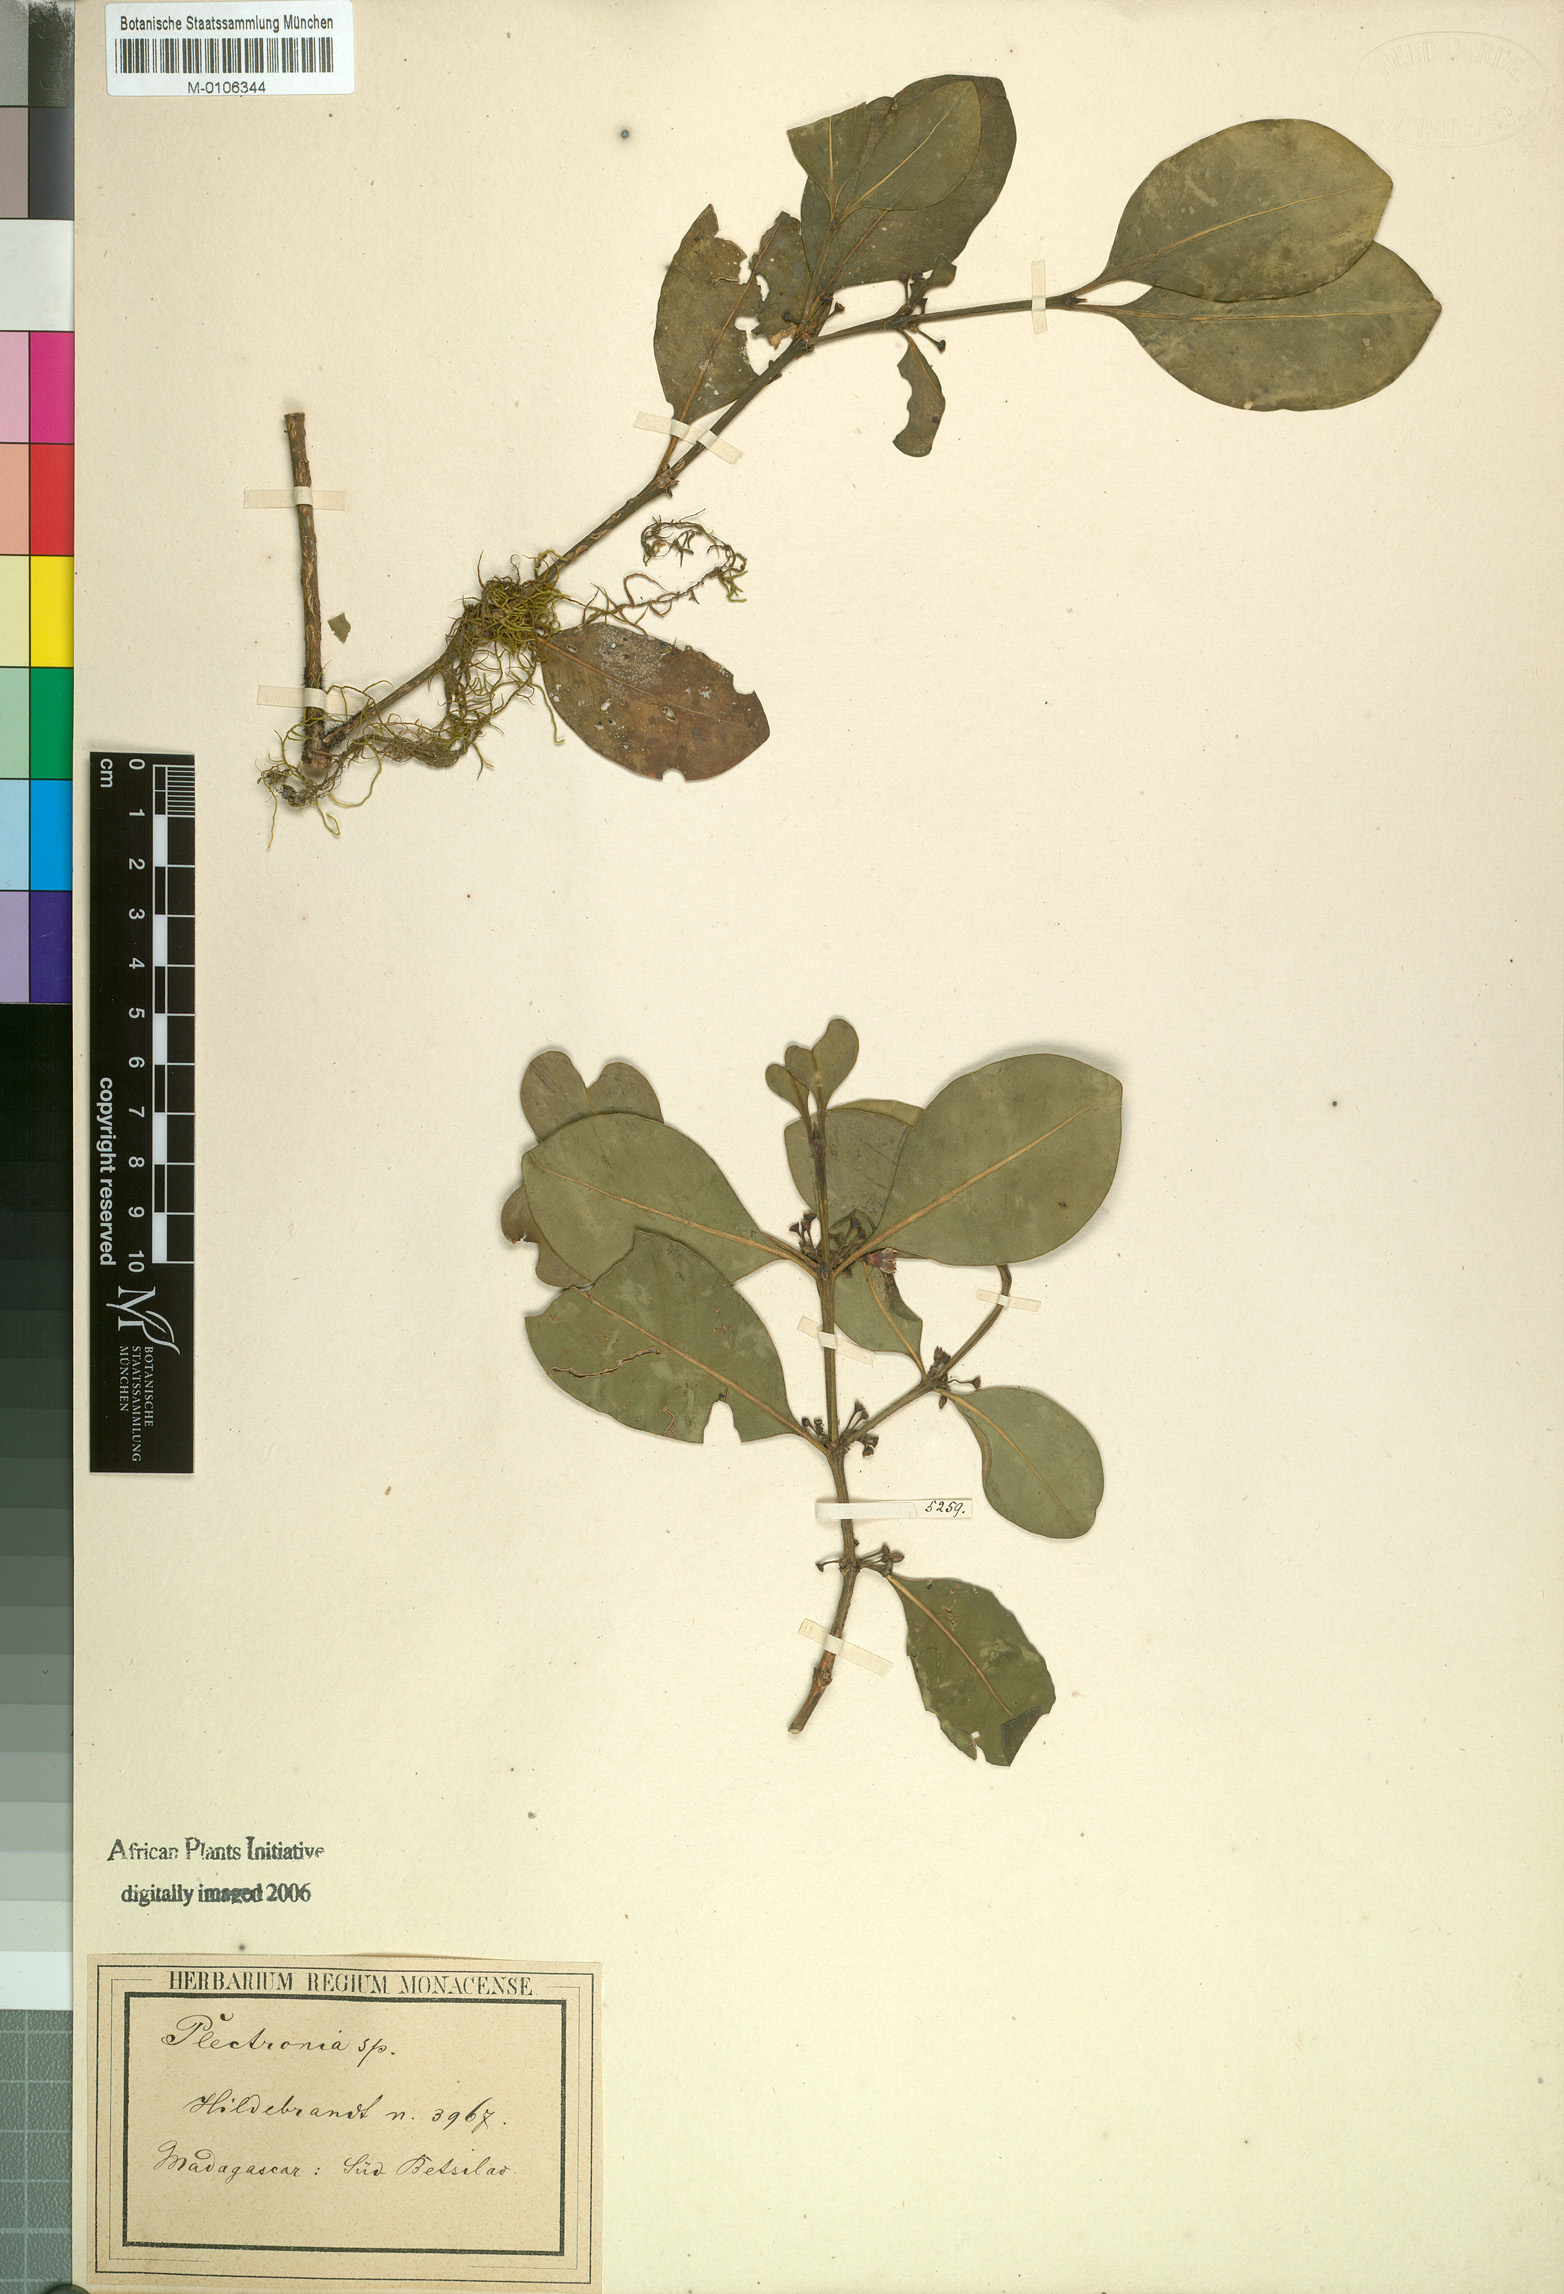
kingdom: Plantae
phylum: Tracheophyta
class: Magnoliopsida
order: Gentianales
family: Rubiaceae
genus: Peponidium
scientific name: Peponidium subevenium
